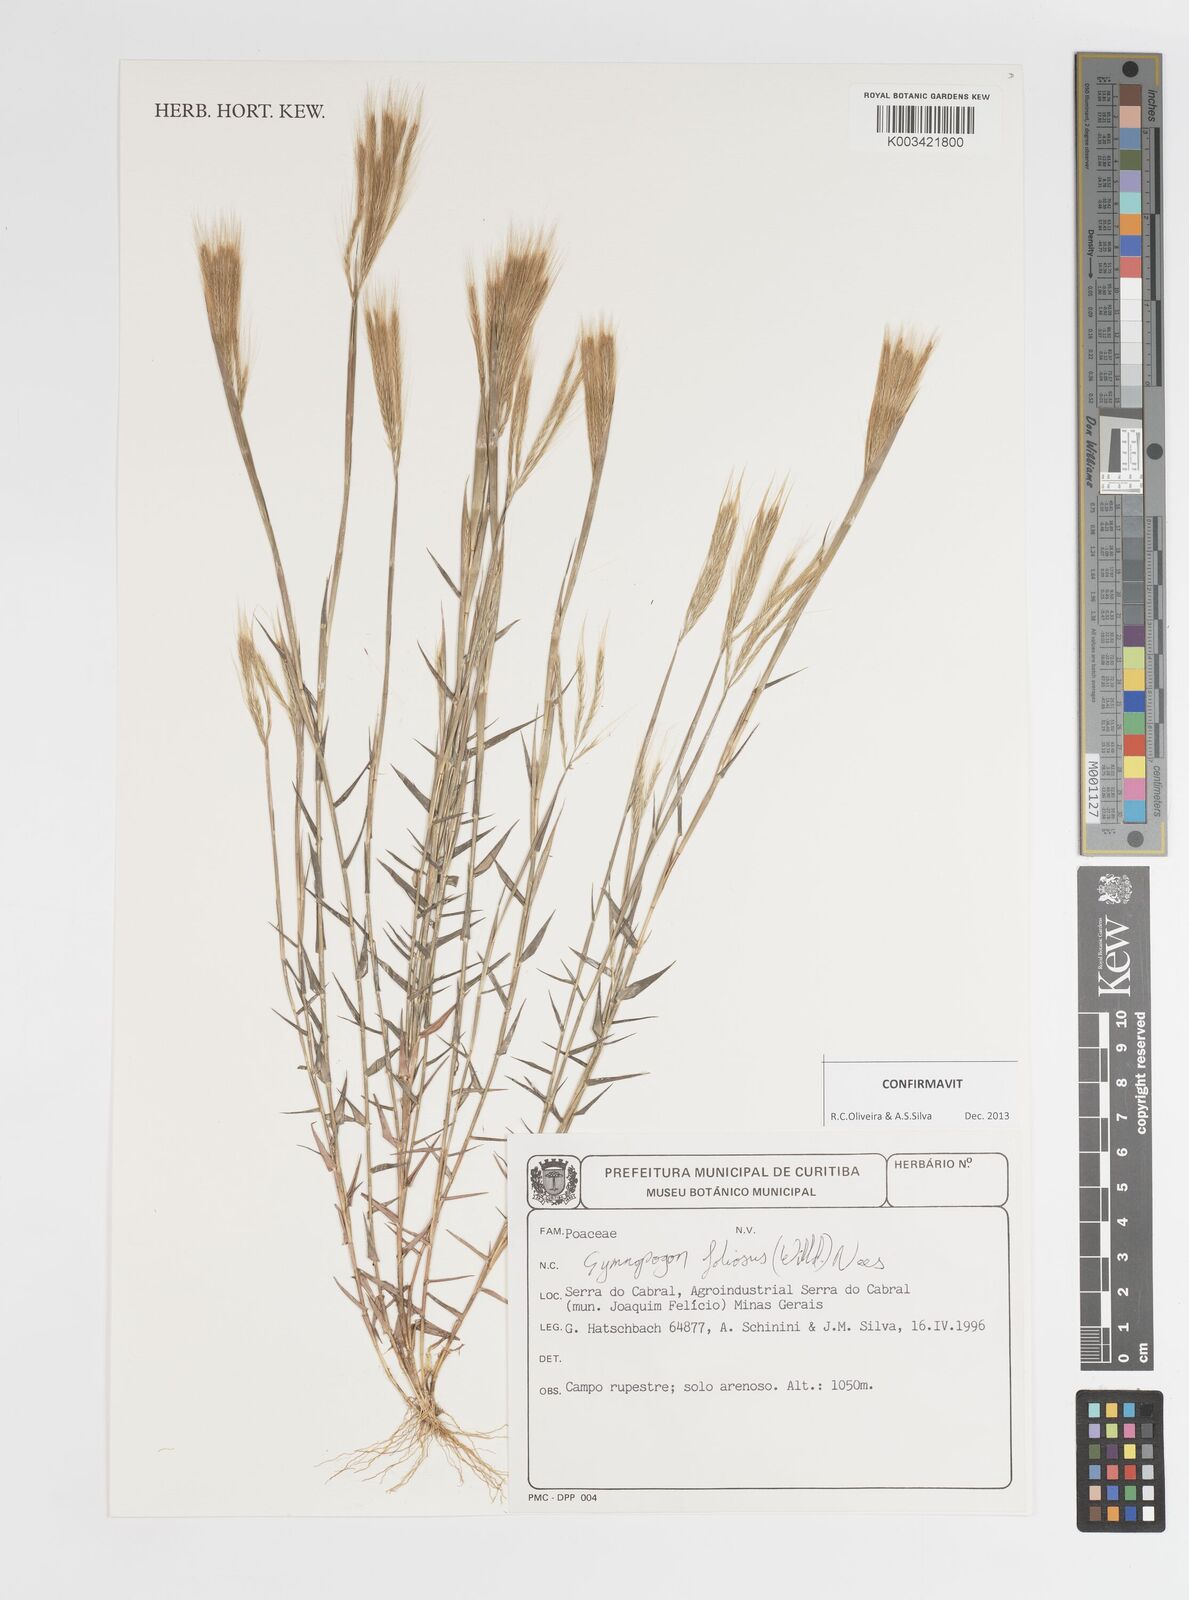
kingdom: Plantae
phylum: Tracheophyta
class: Liliopsida
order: Poales
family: Poaceae
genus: Gymnopogon
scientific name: Gymnopogon foliosus
